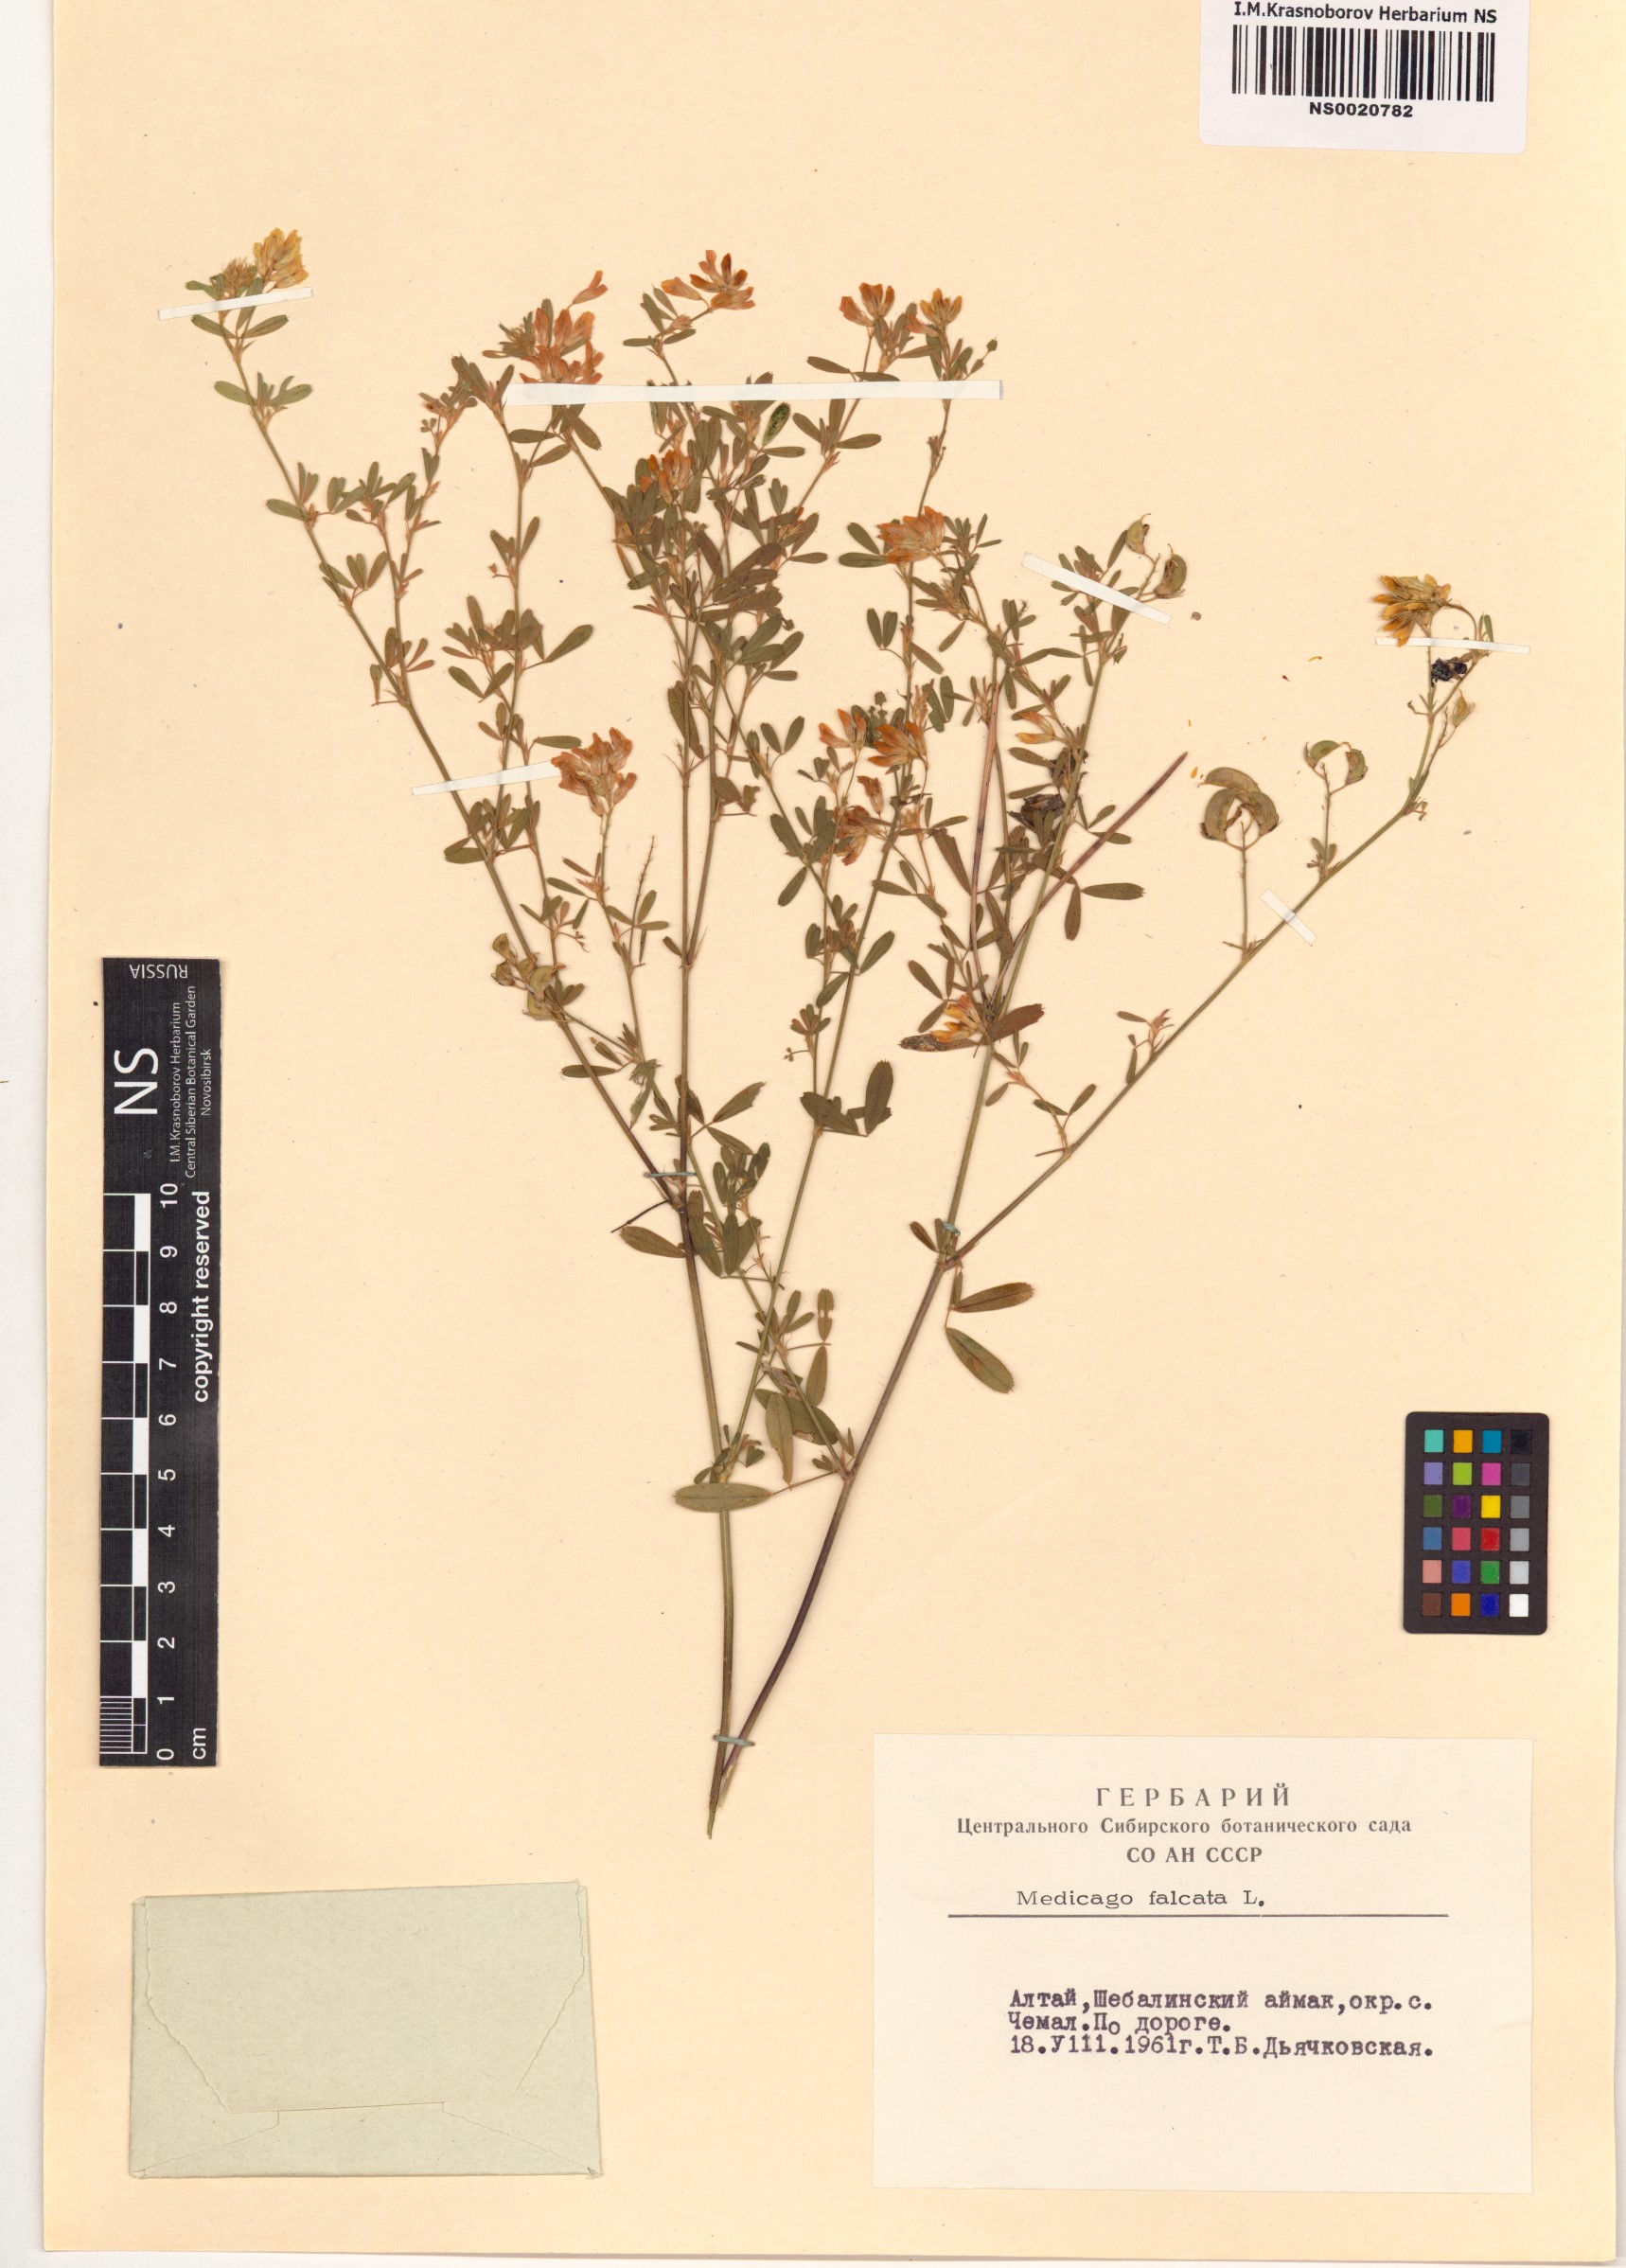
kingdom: Plantae
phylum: Tracheophyta
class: Magnoliopsida
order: Fabales
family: Fabaceae
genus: Medicago
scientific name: Medicago falcata
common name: Sickle medick
